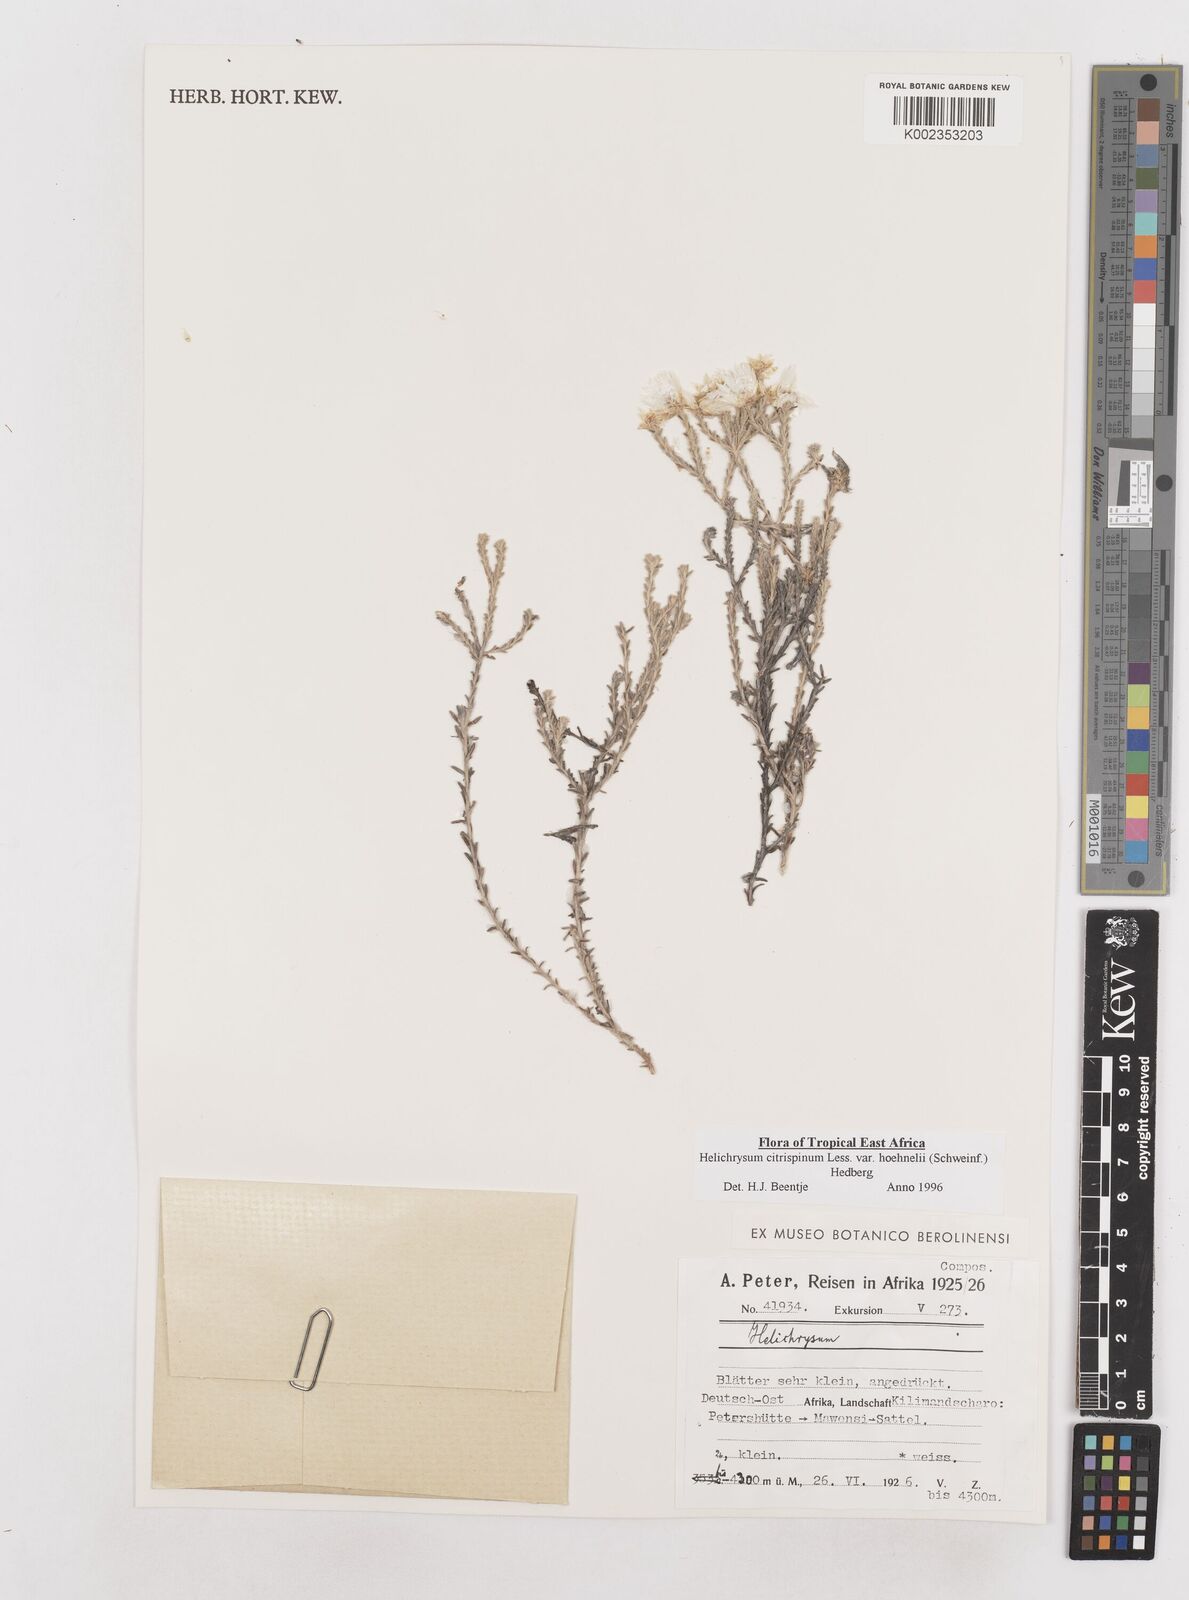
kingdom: Plantae
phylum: Tracheophyta
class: Magnoliopsida
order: Asterales
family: Asteraceae
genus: Helichrysum
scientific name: Helichrysum citrispinum
